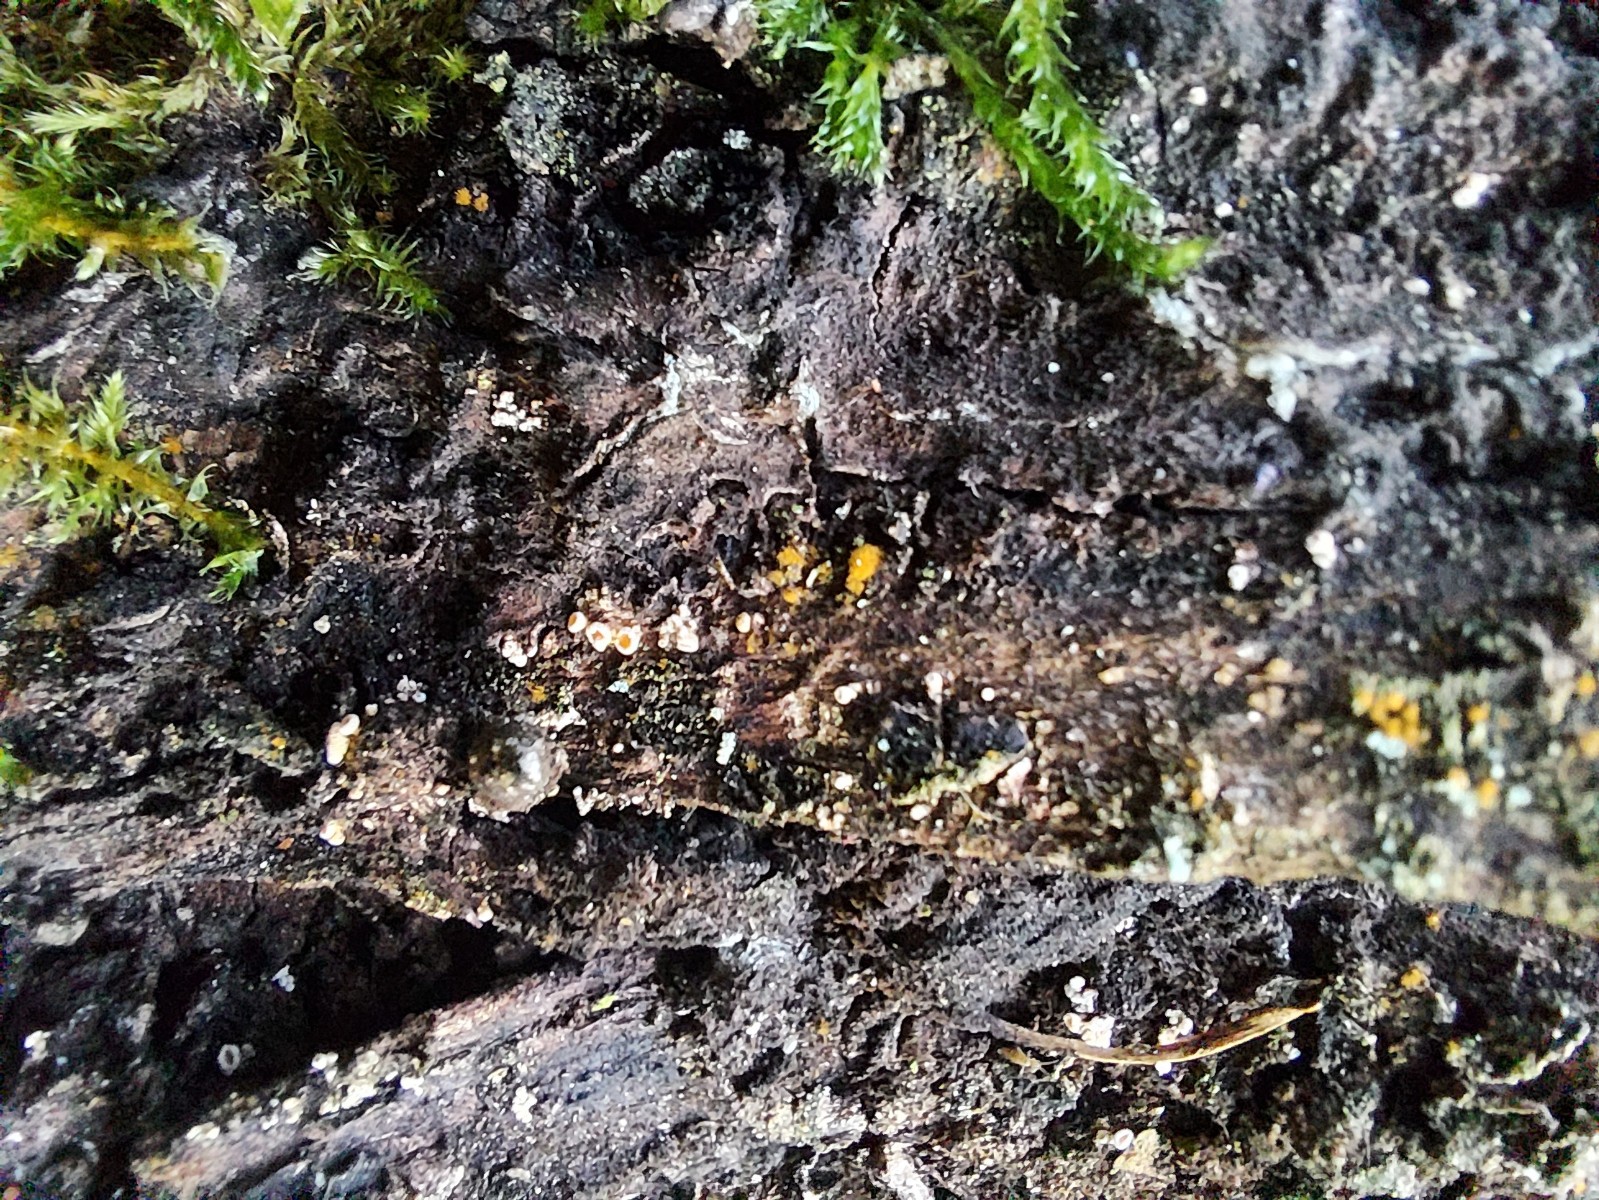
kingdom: Fungi
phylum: Ascomycota
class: Leotiomycetes
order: Helotiales
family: Lachnaceae
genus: Lachnellula
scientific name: Lachnellula
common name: frynseskive
